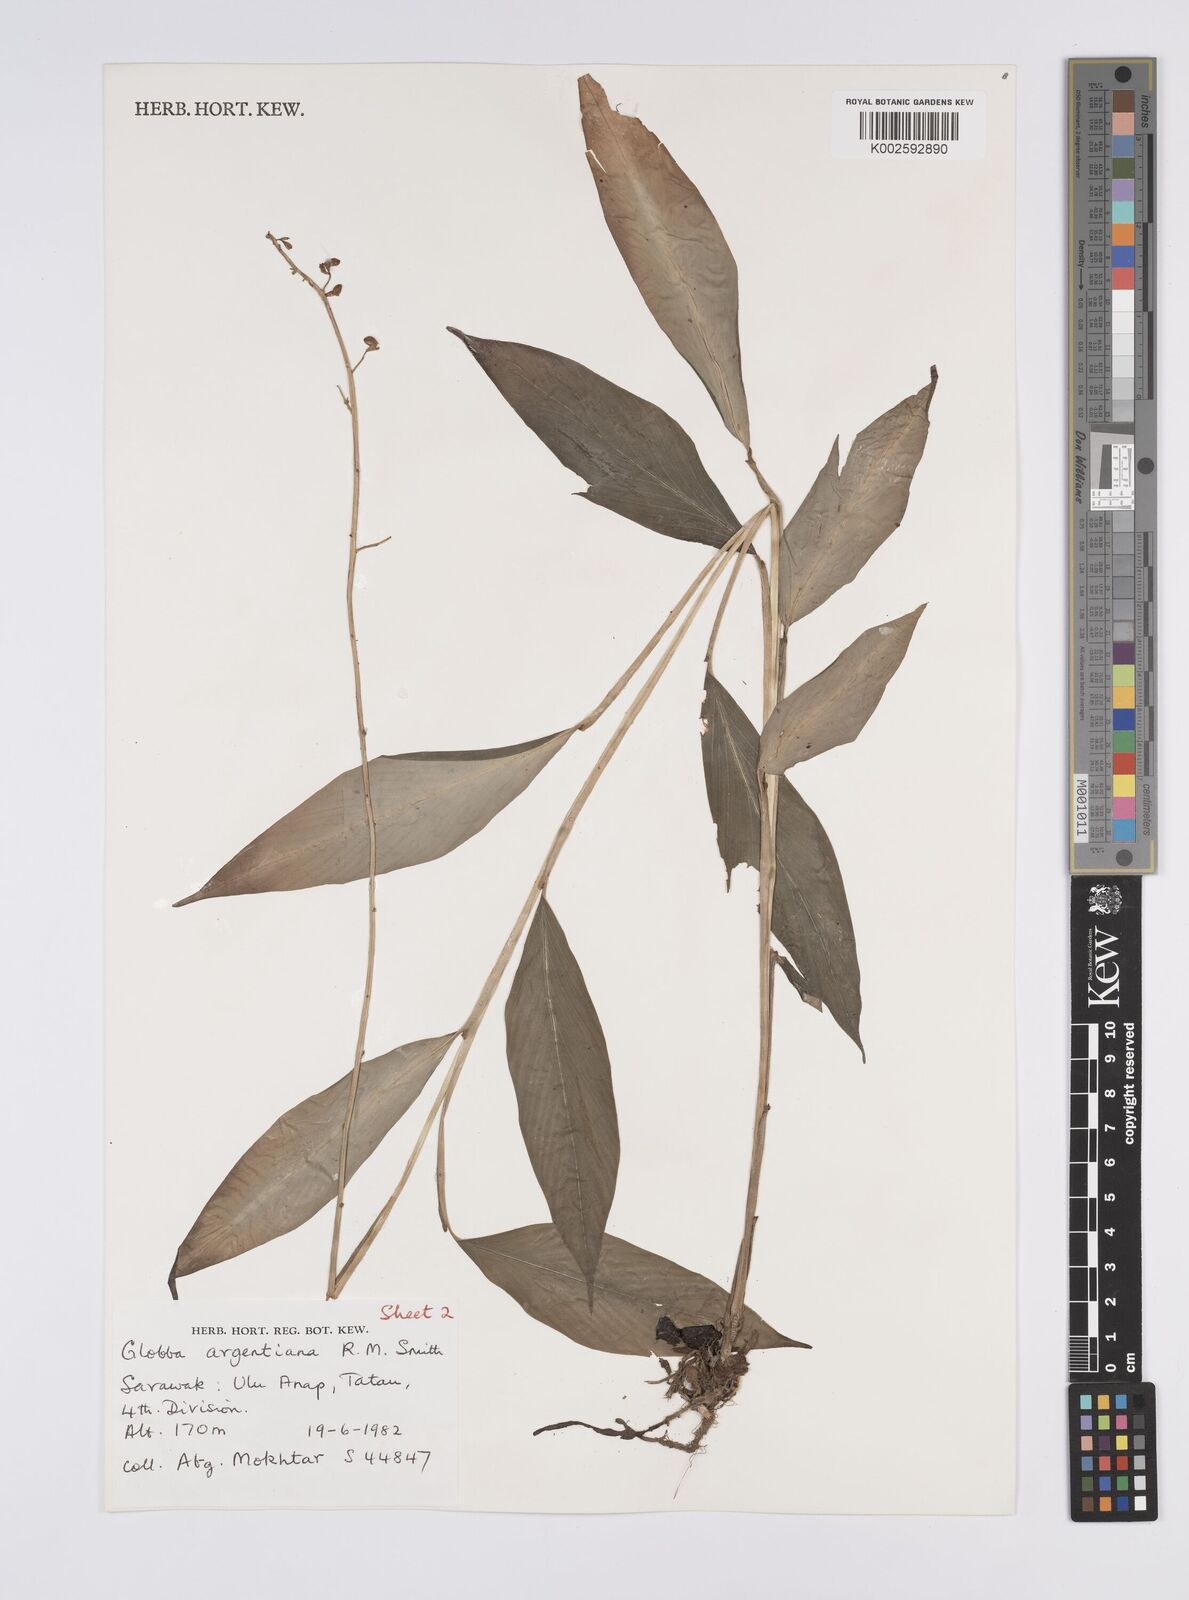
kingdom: Plantae
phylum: Tracheophyta
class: Liliopsida
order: Zingiberales
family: Zingiberaceae
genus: Globba
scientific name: Globba francisci
